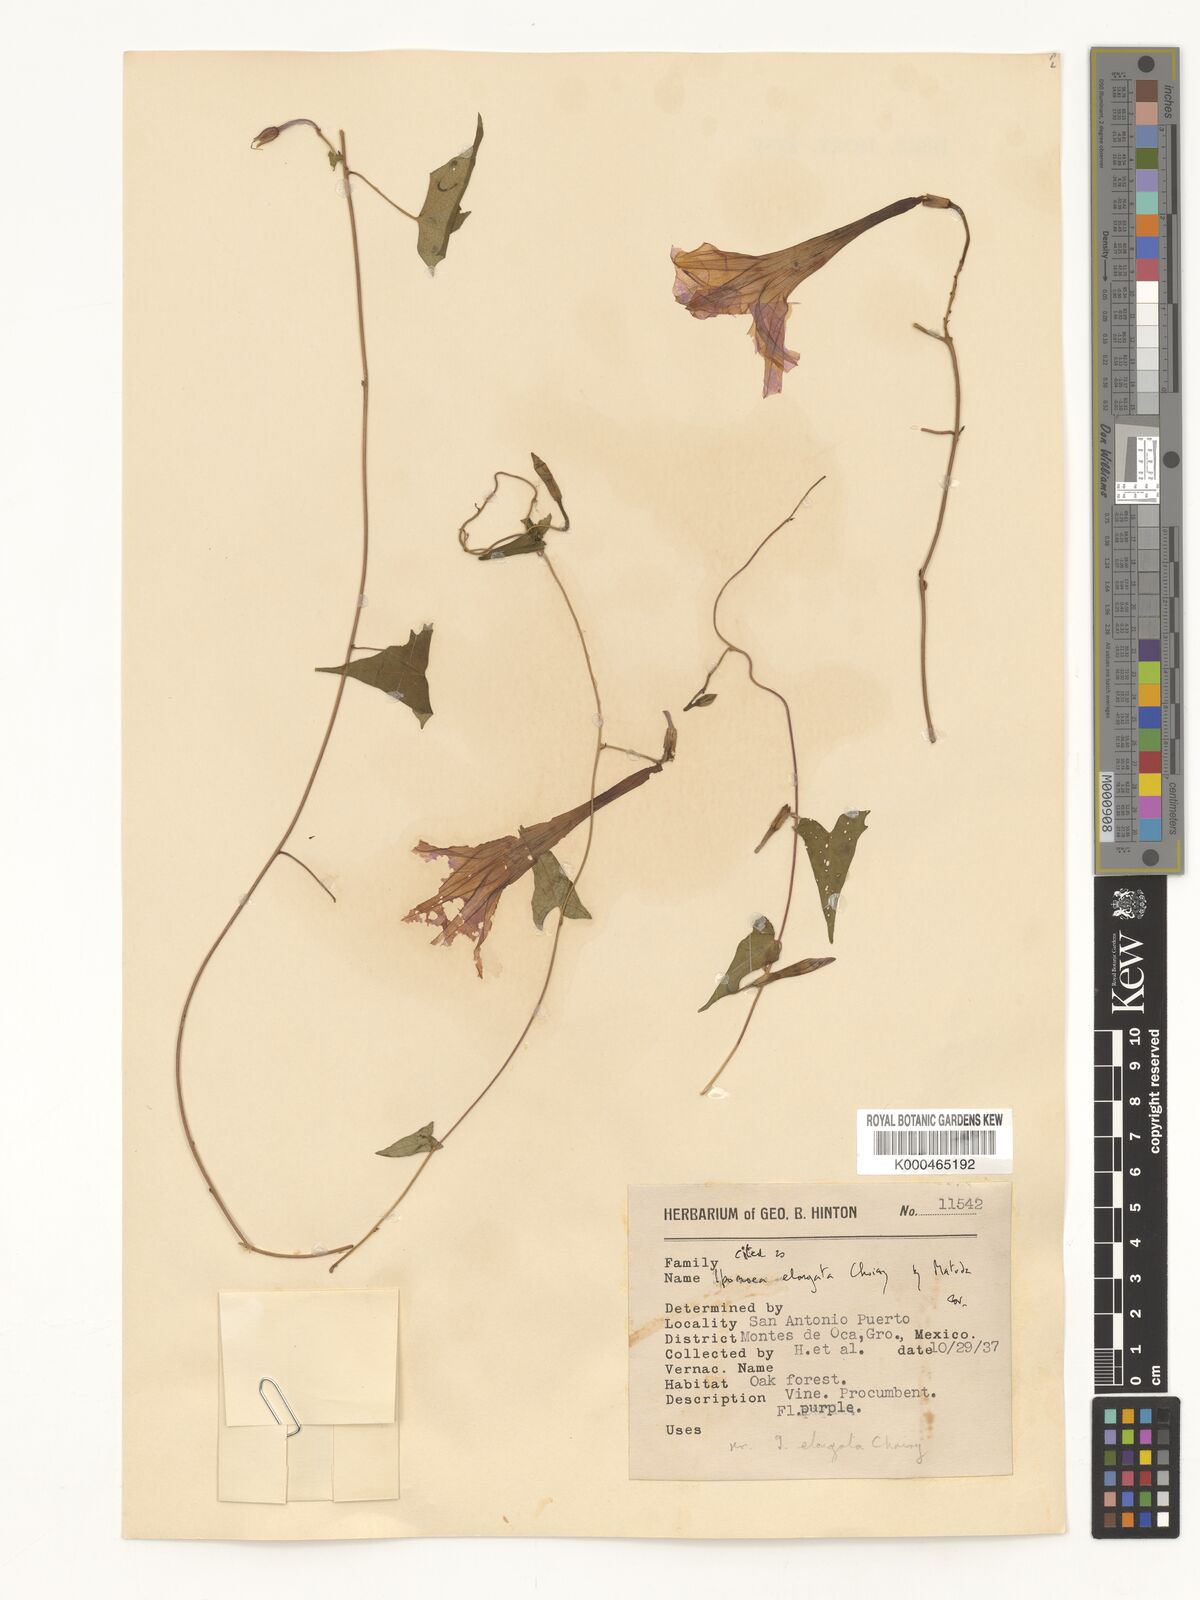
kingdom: Plantae
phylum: Tracheophyta
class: Magnoliopsida
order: Solanales
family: Convolvulaceae
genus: Ipomoea
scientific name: Ipomoea elongata
